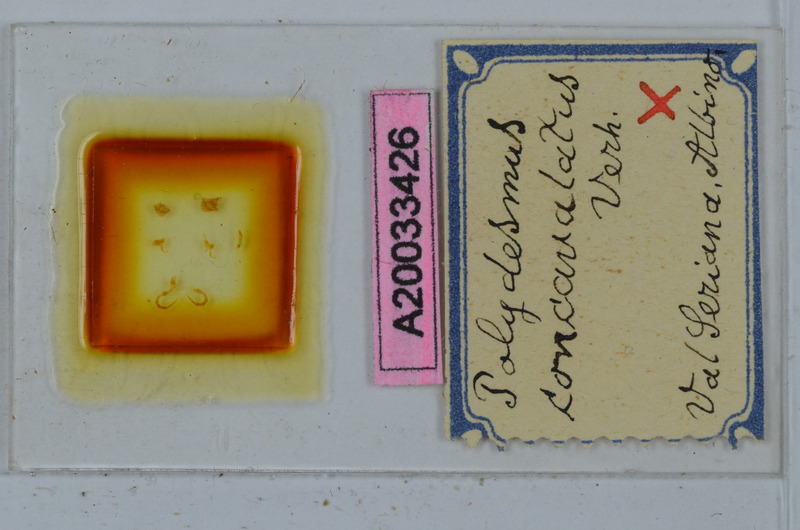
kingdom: Animalia
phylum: Arthropoda
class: Diplopoda
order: Polydesmida
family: Polydesmidae
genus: Polydesmus
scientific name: Polydesmus monticola
